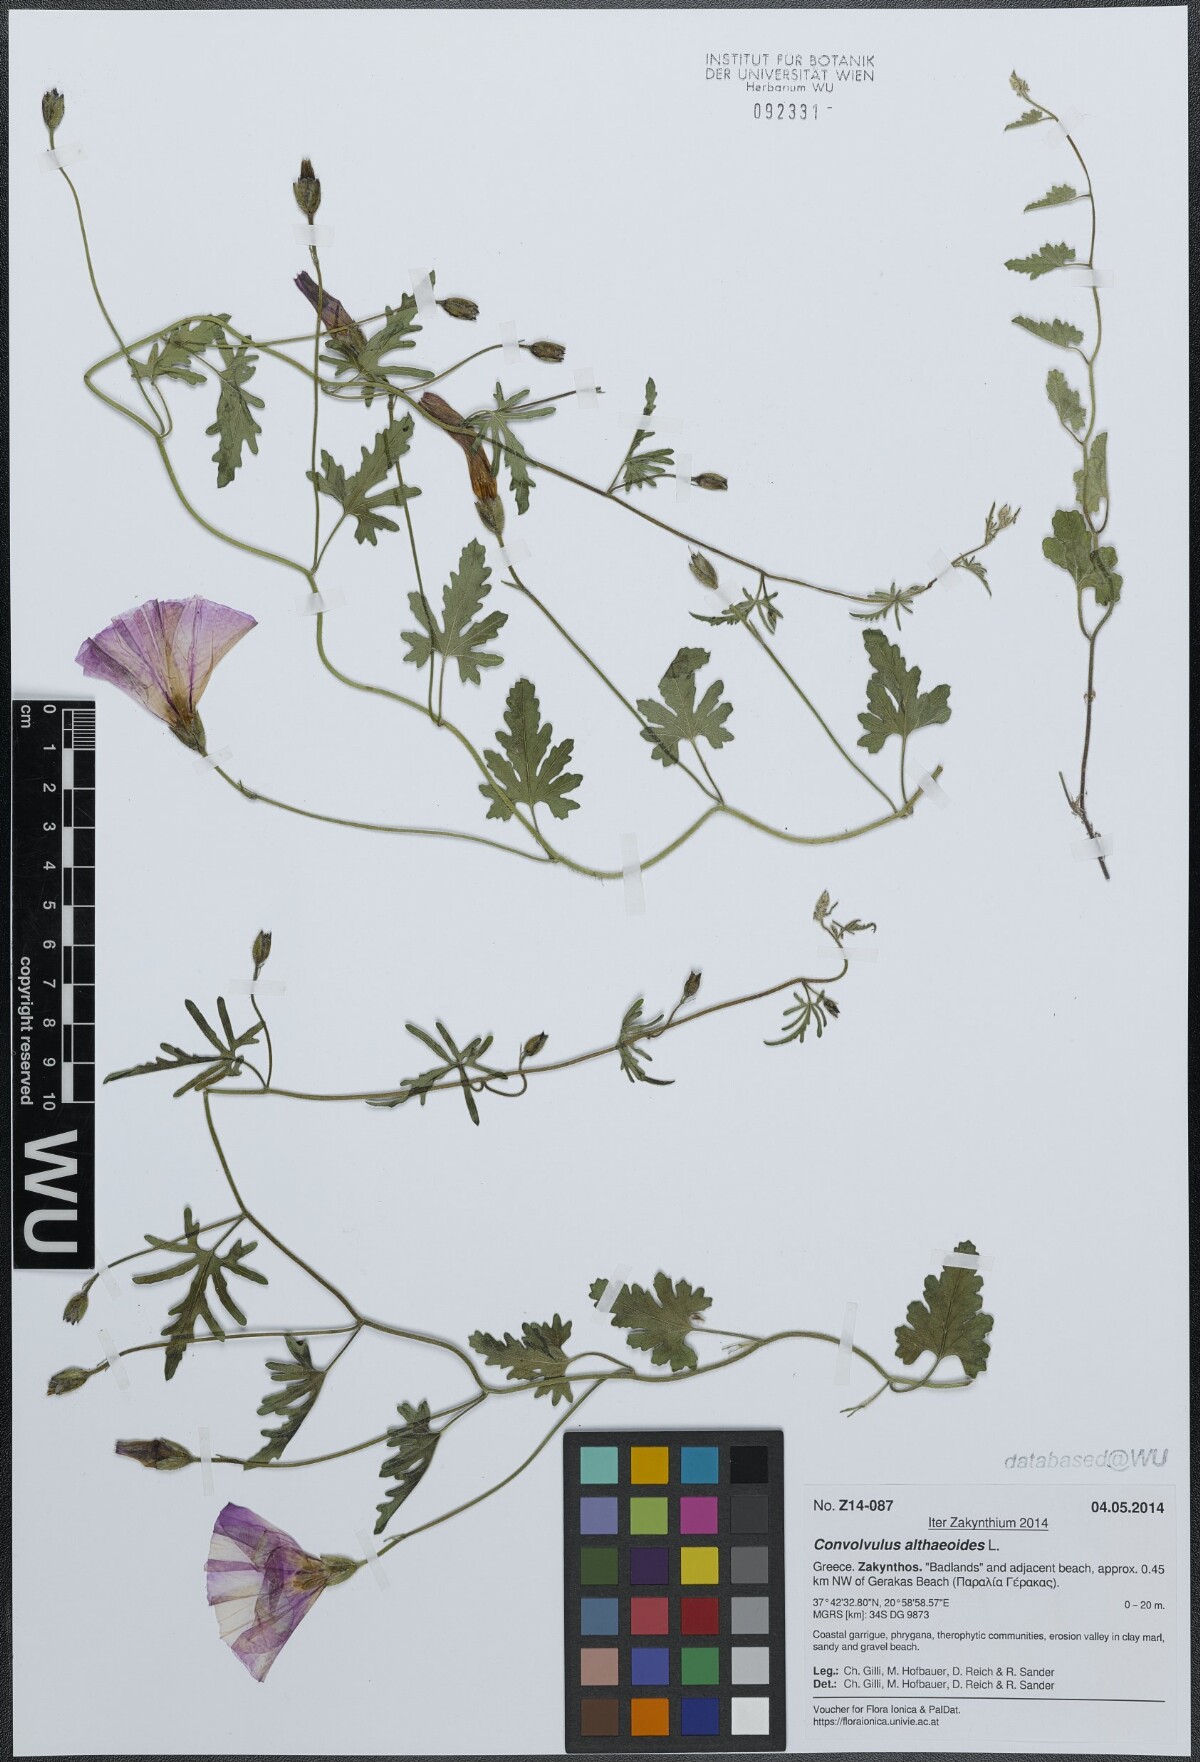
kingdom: Plantae
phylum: Tracheophyta
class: Magnoliopsida
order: Solanales
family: Convolvulaceae
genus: Convolvulus
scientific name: Convolvulus althaeoides
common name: Mallow bindweed
